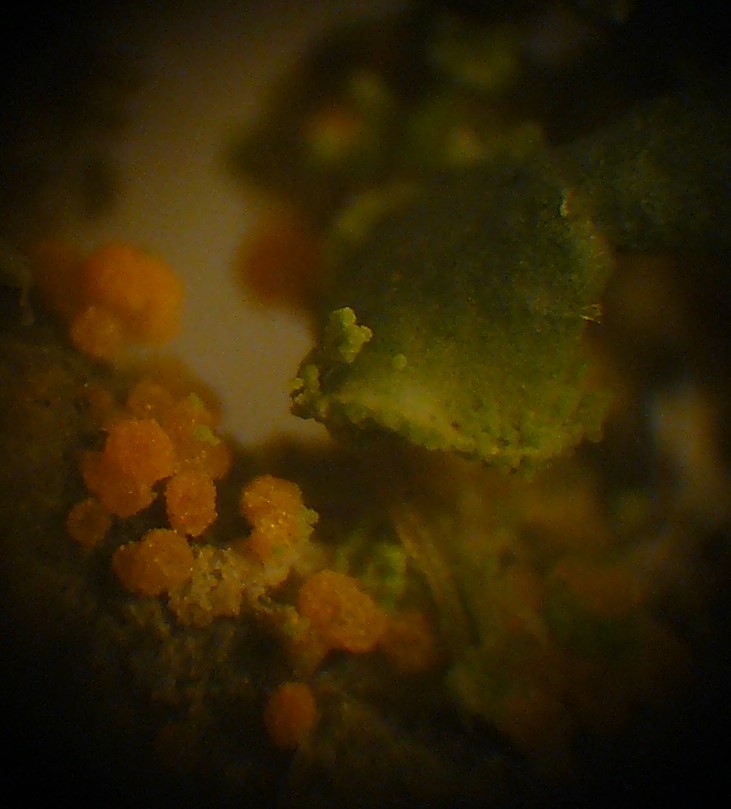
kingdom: Fungi
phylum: Basidiomycota
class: Agaricomycetes
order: Corticiales
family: Corticiaceae
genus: Erythricium
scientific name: Erythricium aurantiacum
